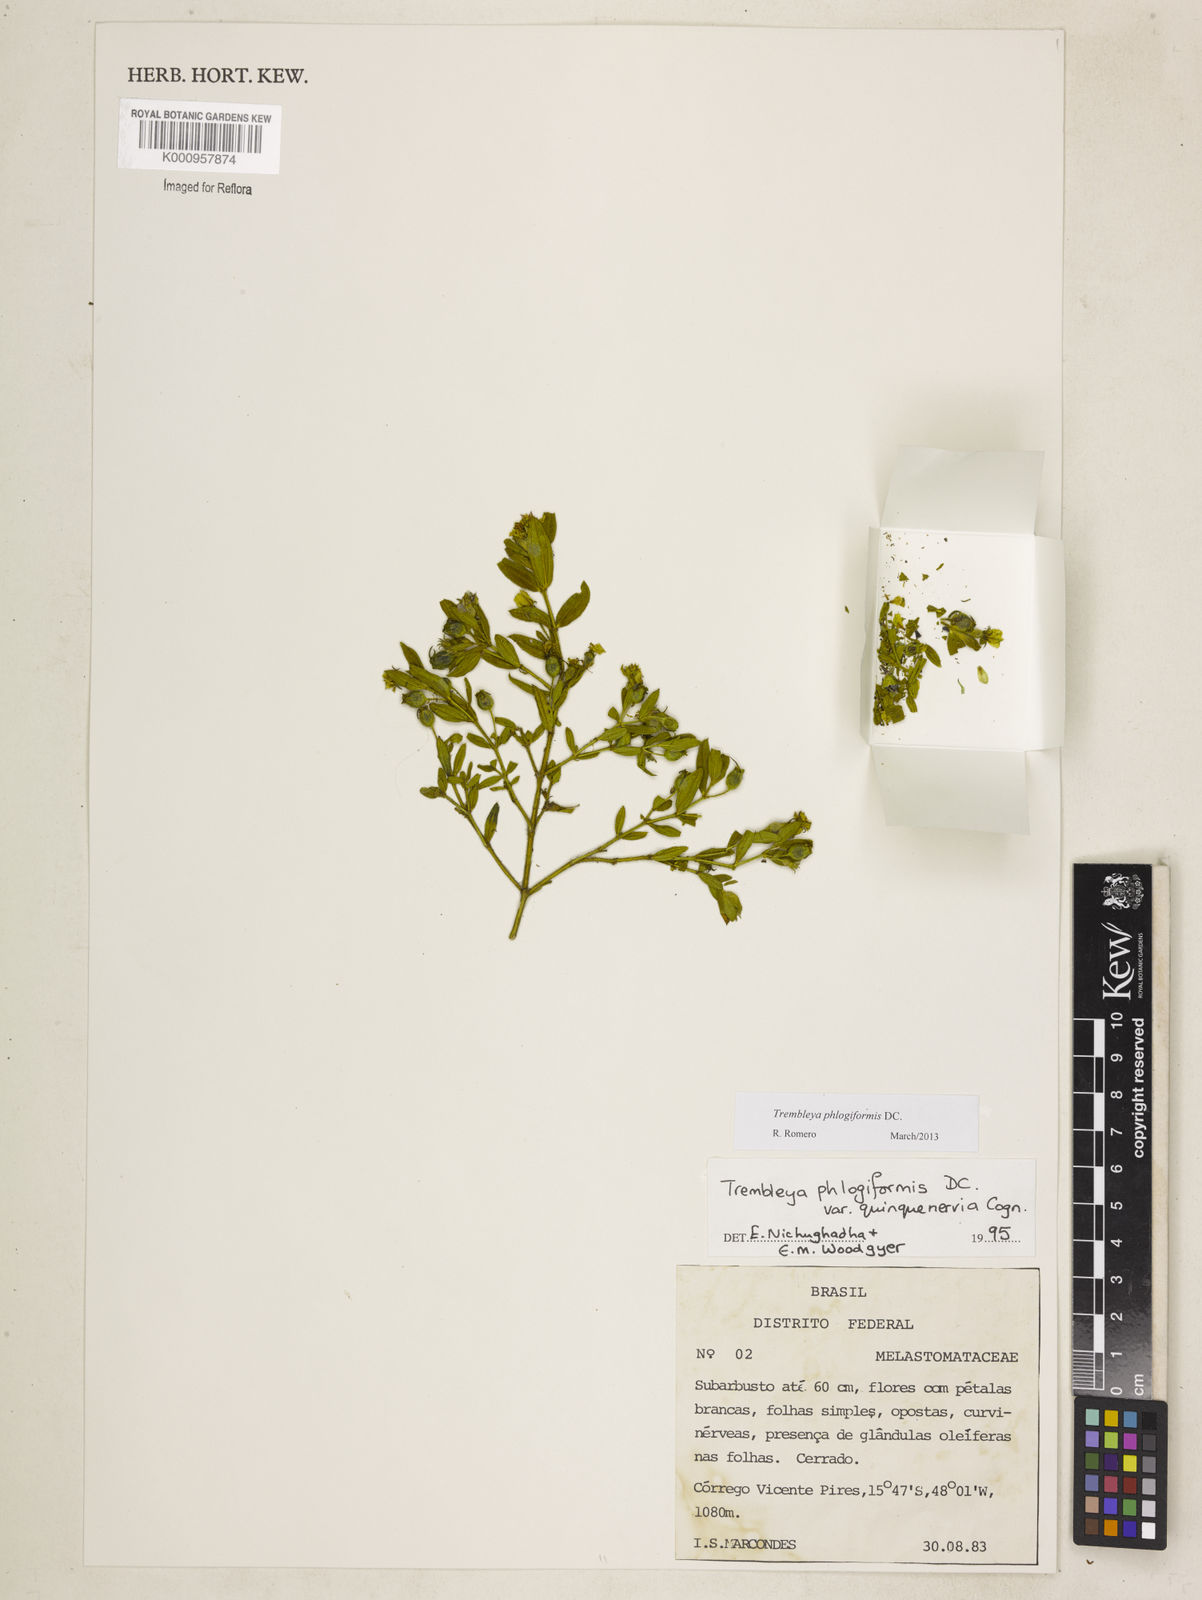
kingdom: Plantae
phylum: Tracheophyta
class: Magnoliopsida
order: Myrtales
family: Melastomataceae
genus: Microlicia
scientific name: Microlicia phlogiformis
